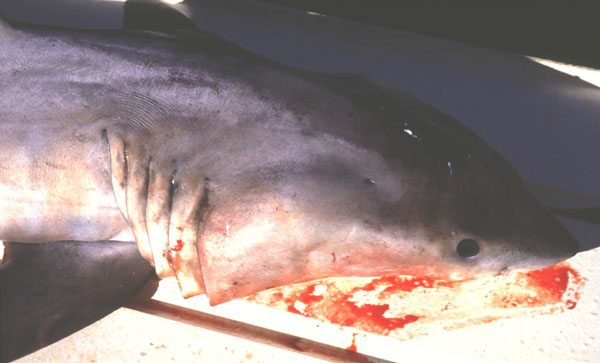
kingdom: Animalia
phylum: Chordata
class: Elasmobranchii
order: Lamniformes
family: Lamnidae
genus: Carcharodon
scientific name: Carcharodon carcharias
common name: Great white shark
